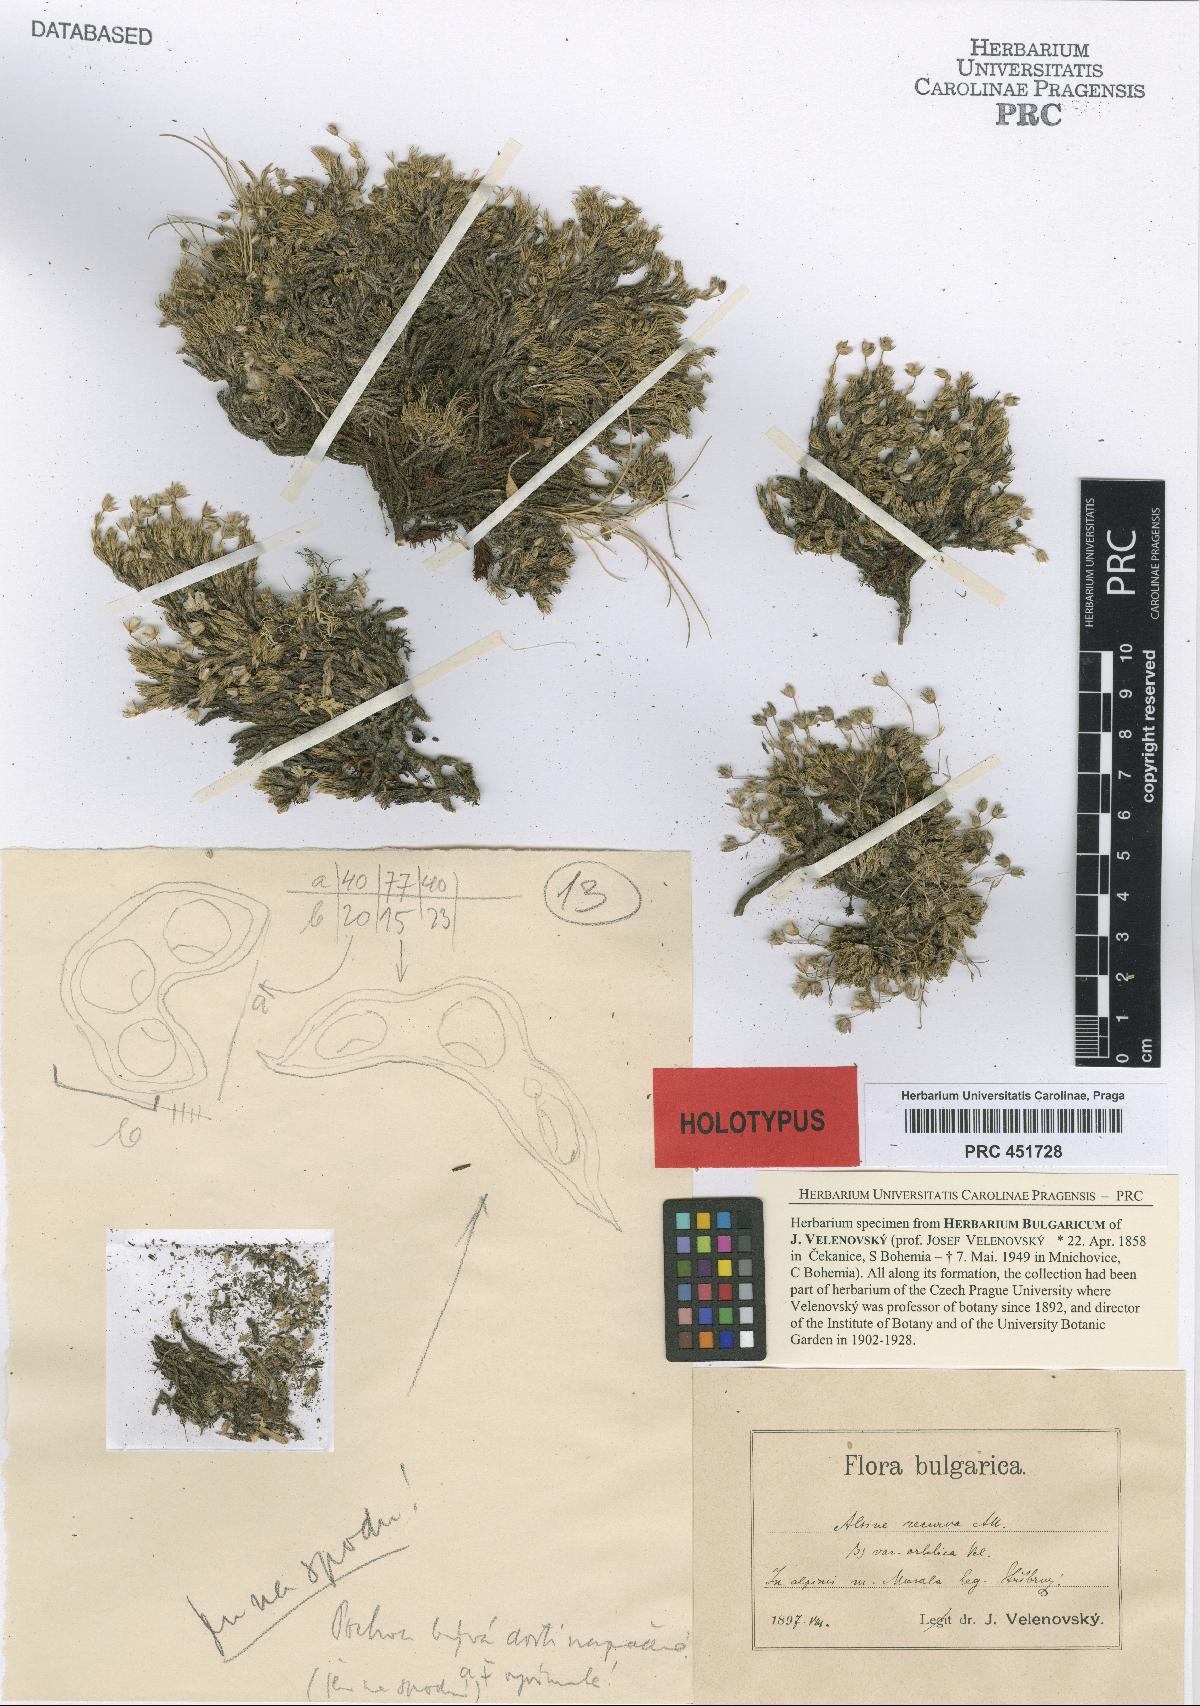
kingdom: Plantae
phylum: Tracheophyta
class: Magnoliopsida
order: Caryophyllales
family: Caryophyllaceae
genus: Minuartia
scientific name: Minuartia recurva
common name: Recurved sandwort
